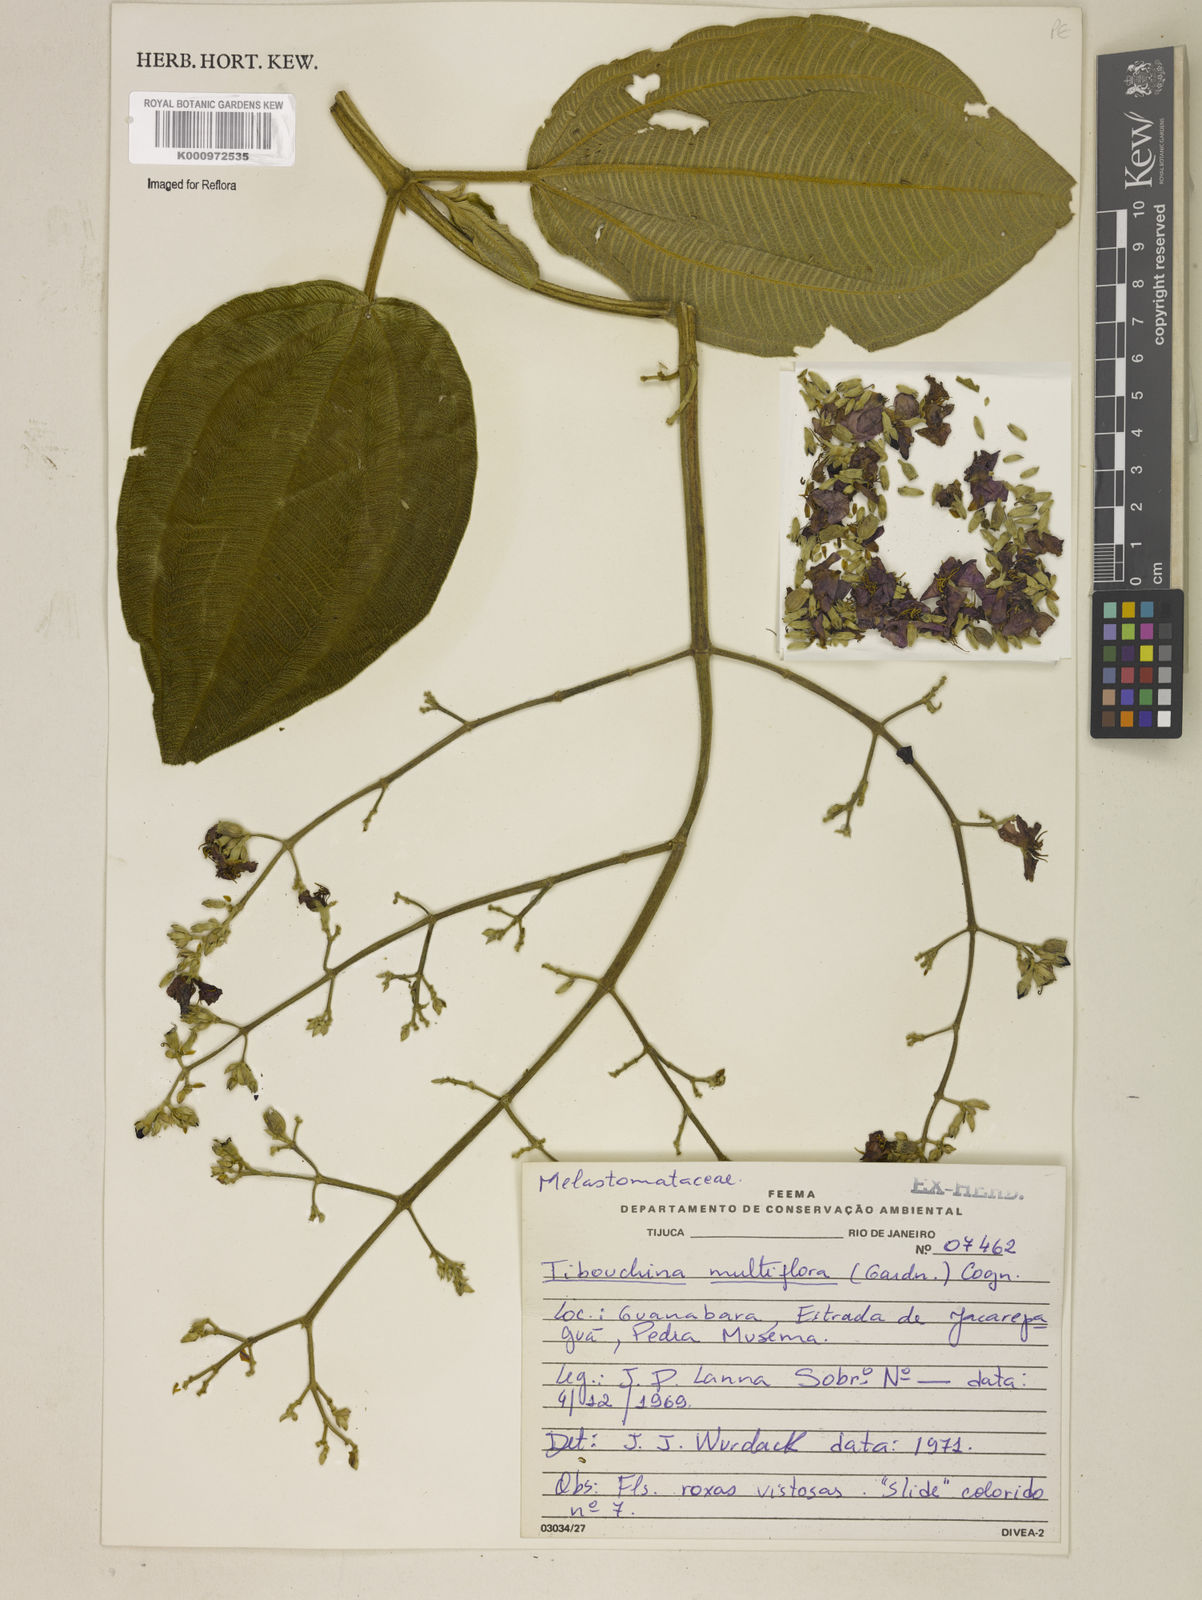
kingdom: Plantae
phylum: Tracheophyta
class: Magnoliopsida
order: Myrtales
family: Melastomataceae
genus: Pleroma
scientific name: Pleroma heteromallum
